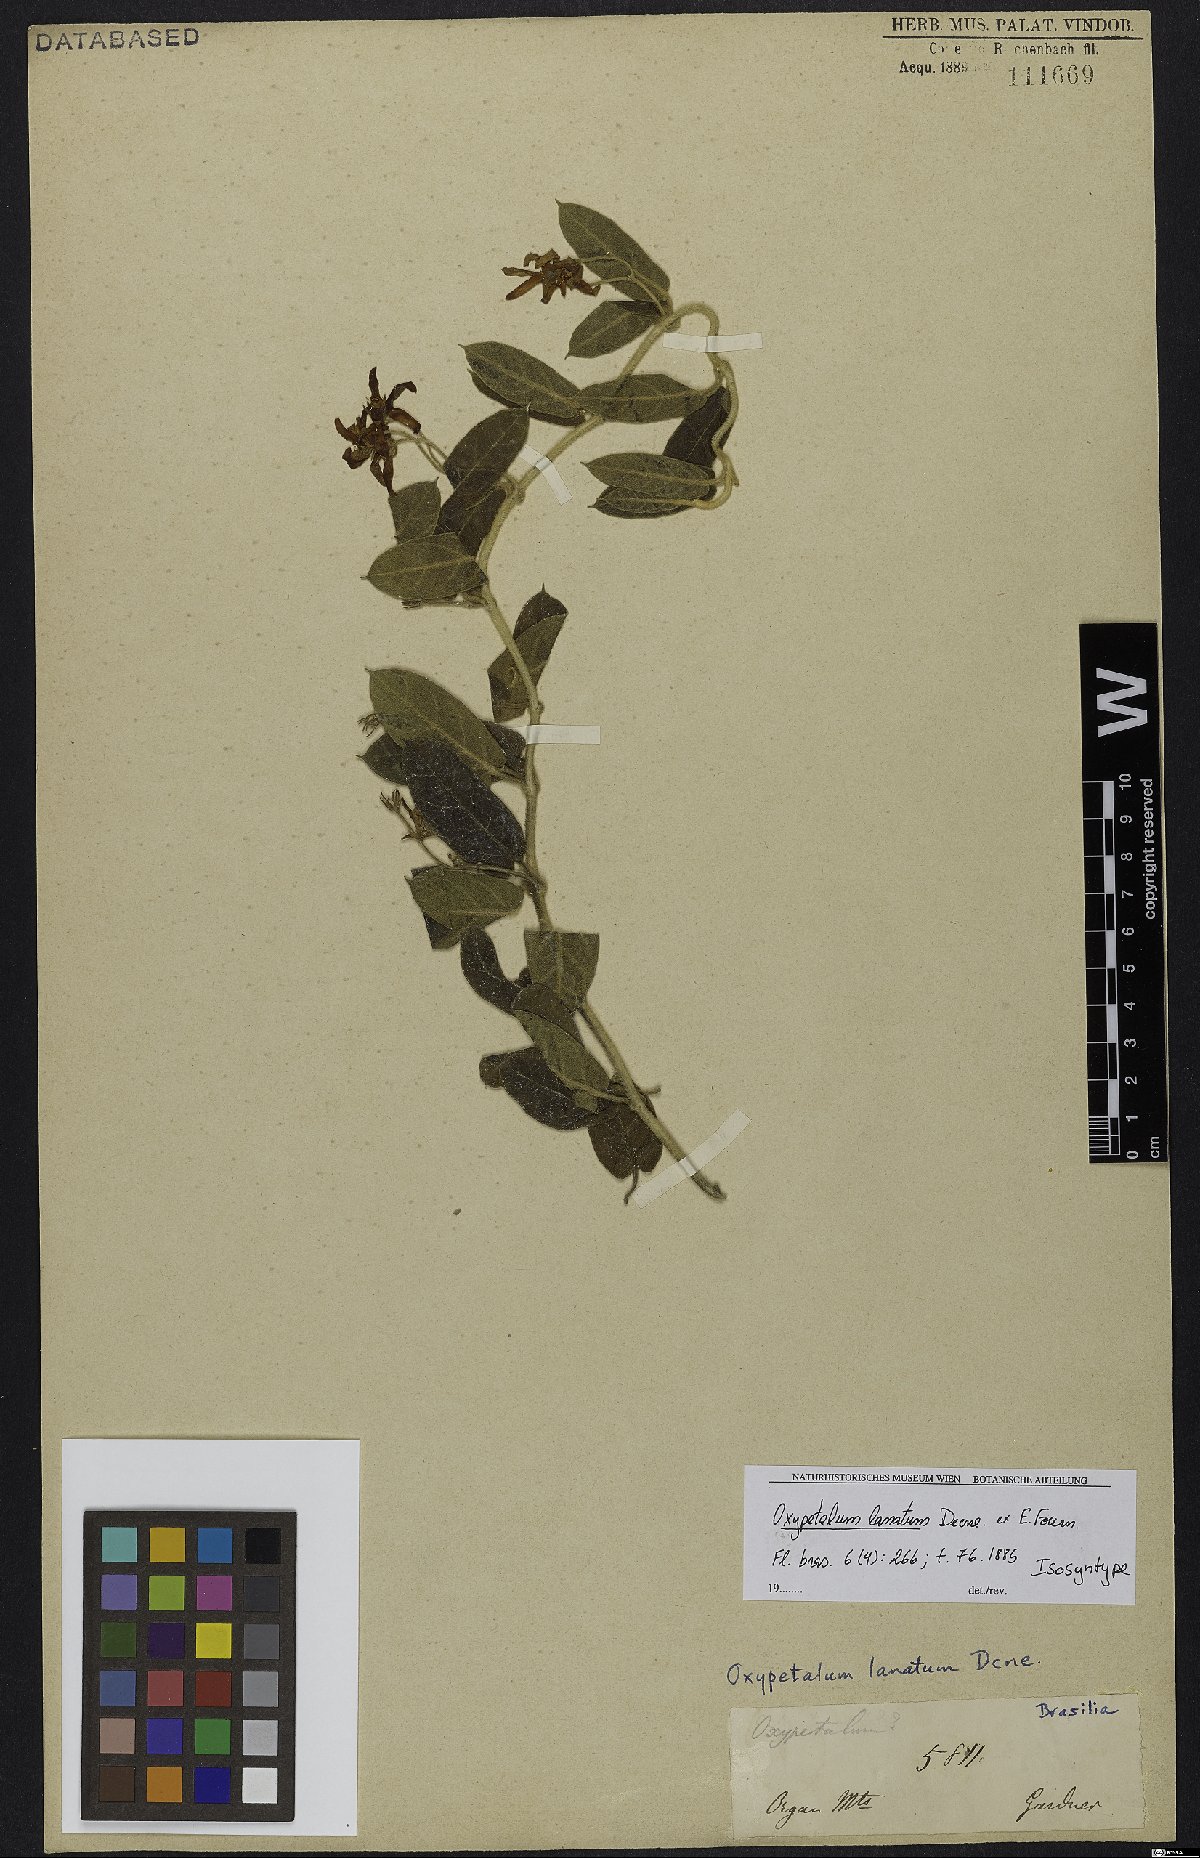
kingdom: Plantae
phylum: Tracheophyta
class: Magnoliopsida
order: Gentianales
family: Apocynaceae
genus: Oxypetalum
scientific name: Oxypetalum lanatum
